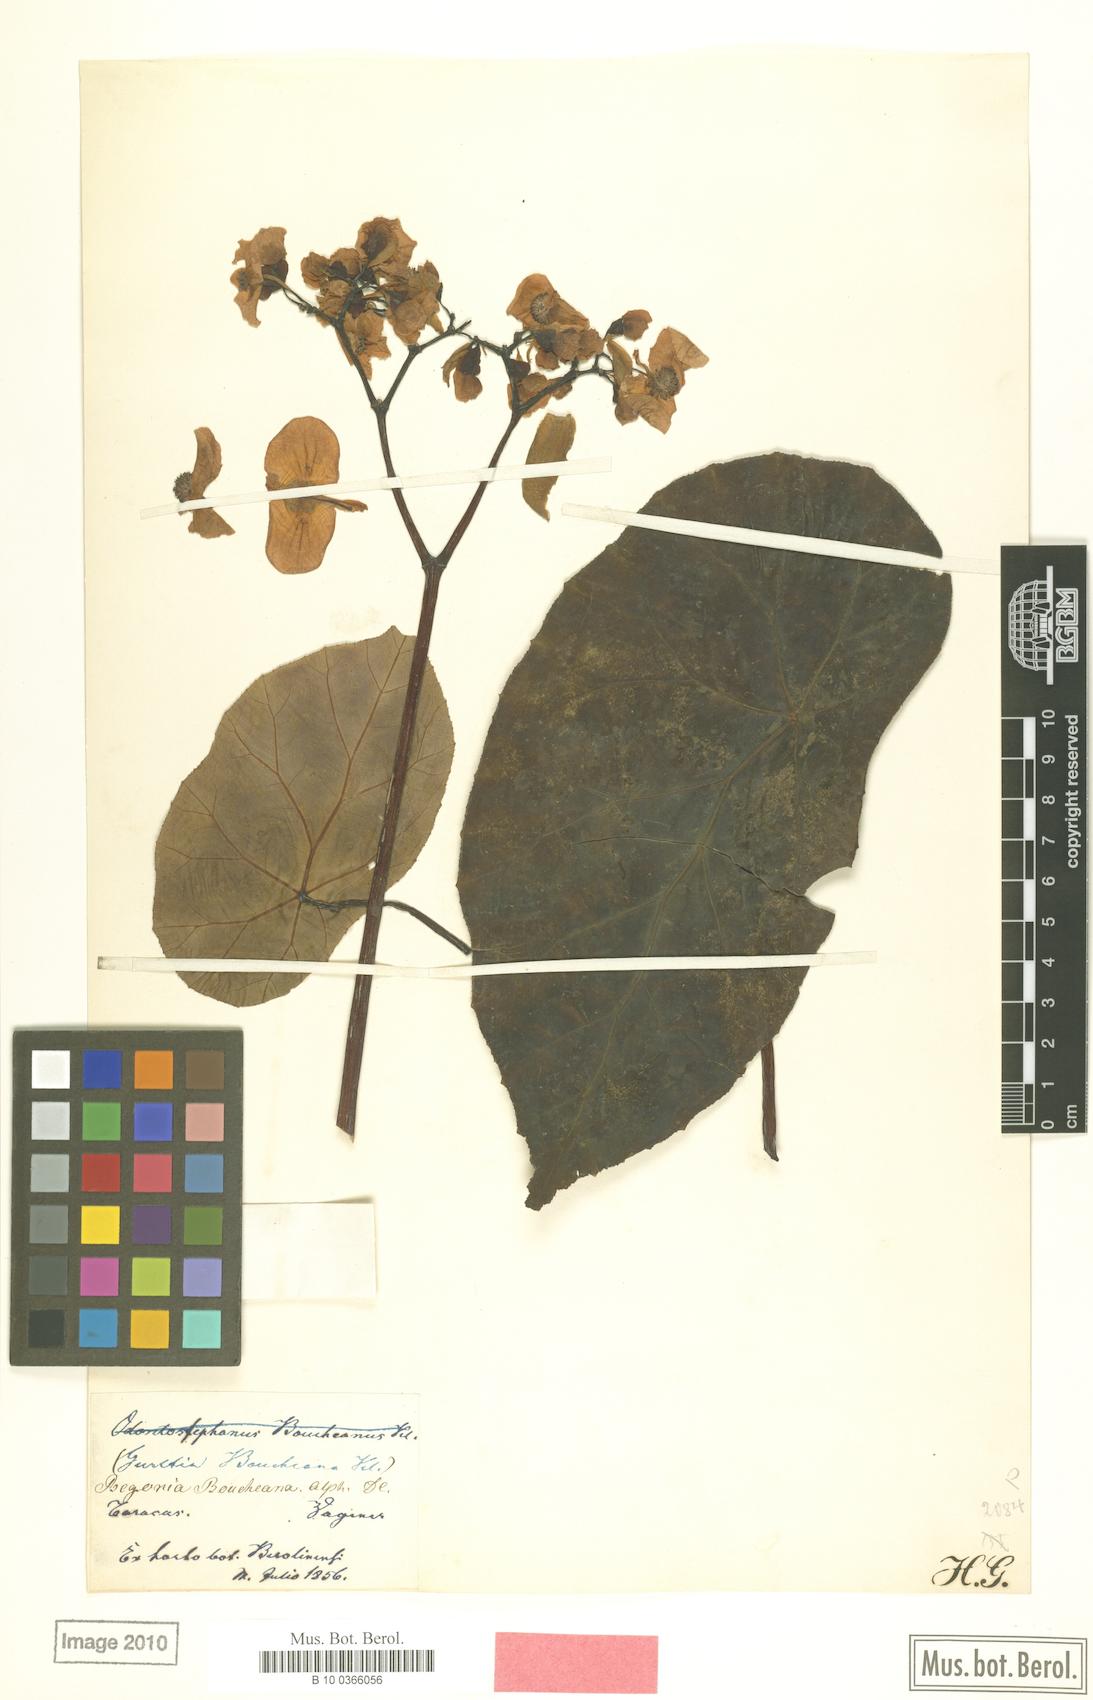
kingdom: Plantae
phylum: Tracheophyta
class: Magnoliopsida
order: Cucurbitales
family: Begoniaceae
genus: Begonia
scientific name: Begonia boucheana
